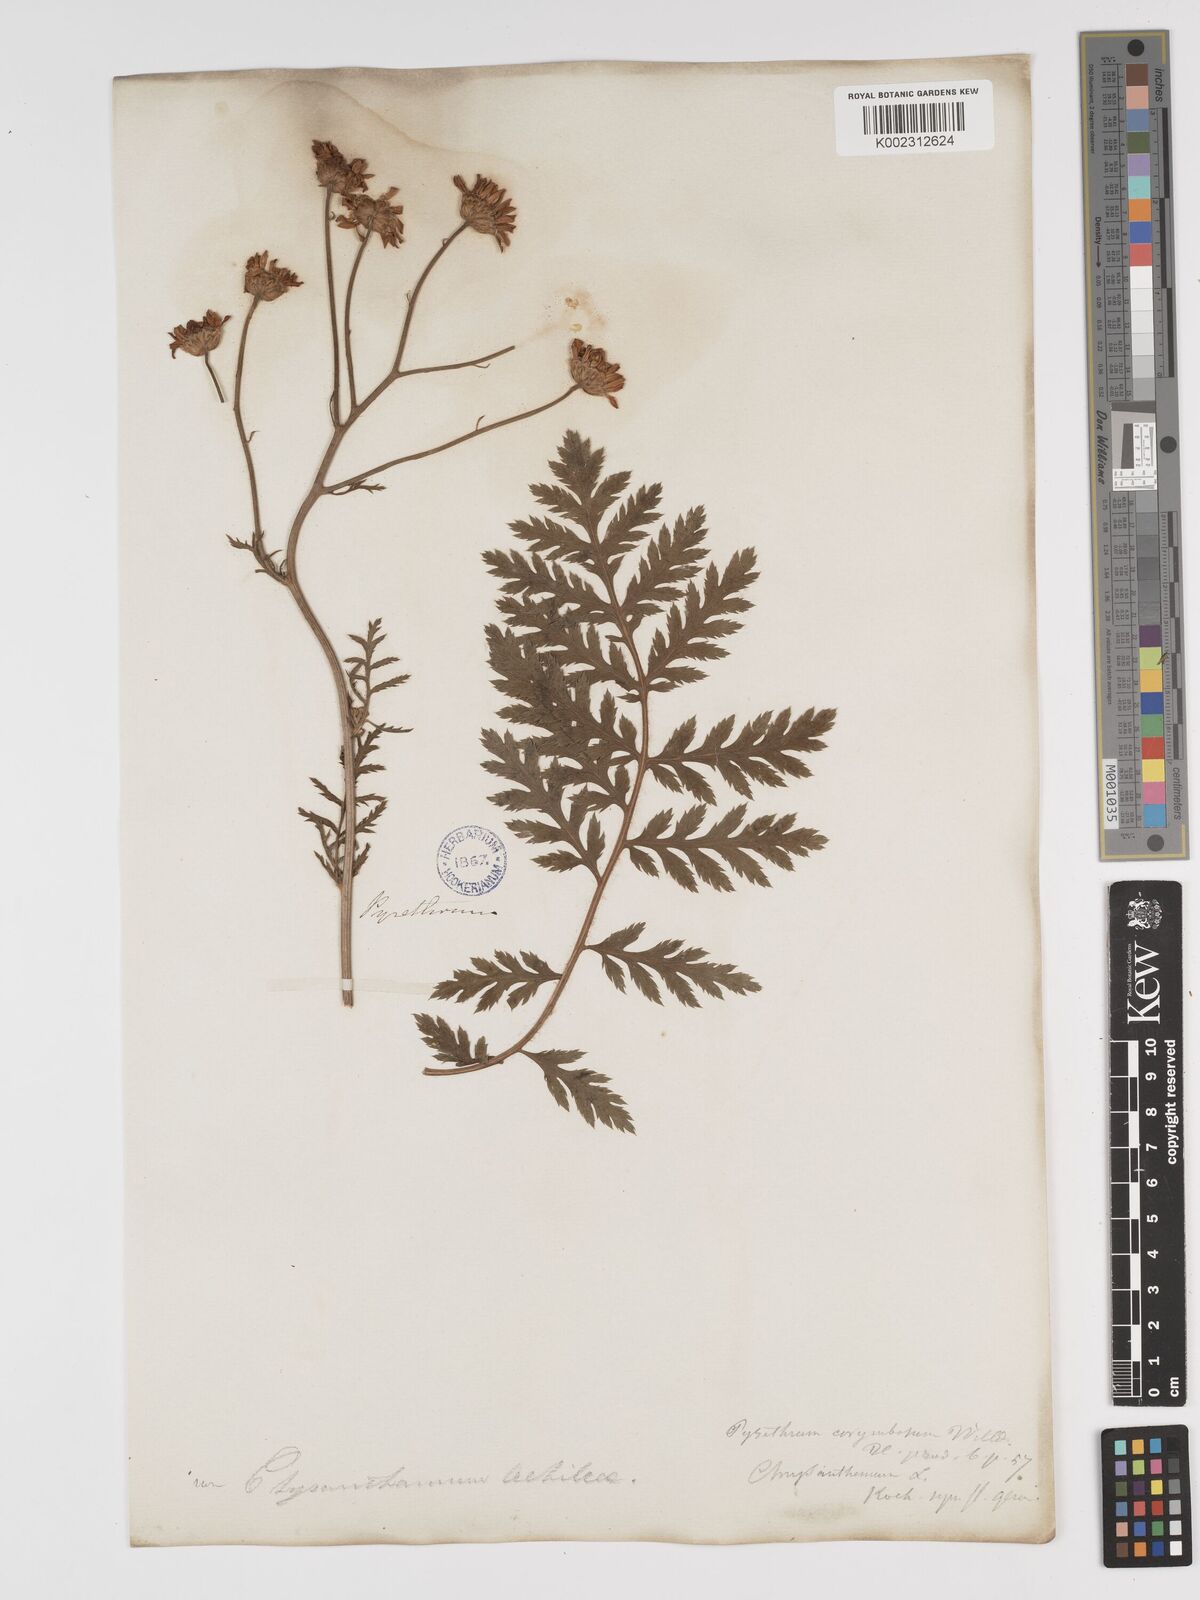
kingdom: Plantae
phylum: Tracheophyta
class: Magnoliopsida
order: Asterales
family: Asteraceae
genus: Tanacetum
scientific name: Tanacetum corymbosum
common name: Scentless feverfew
